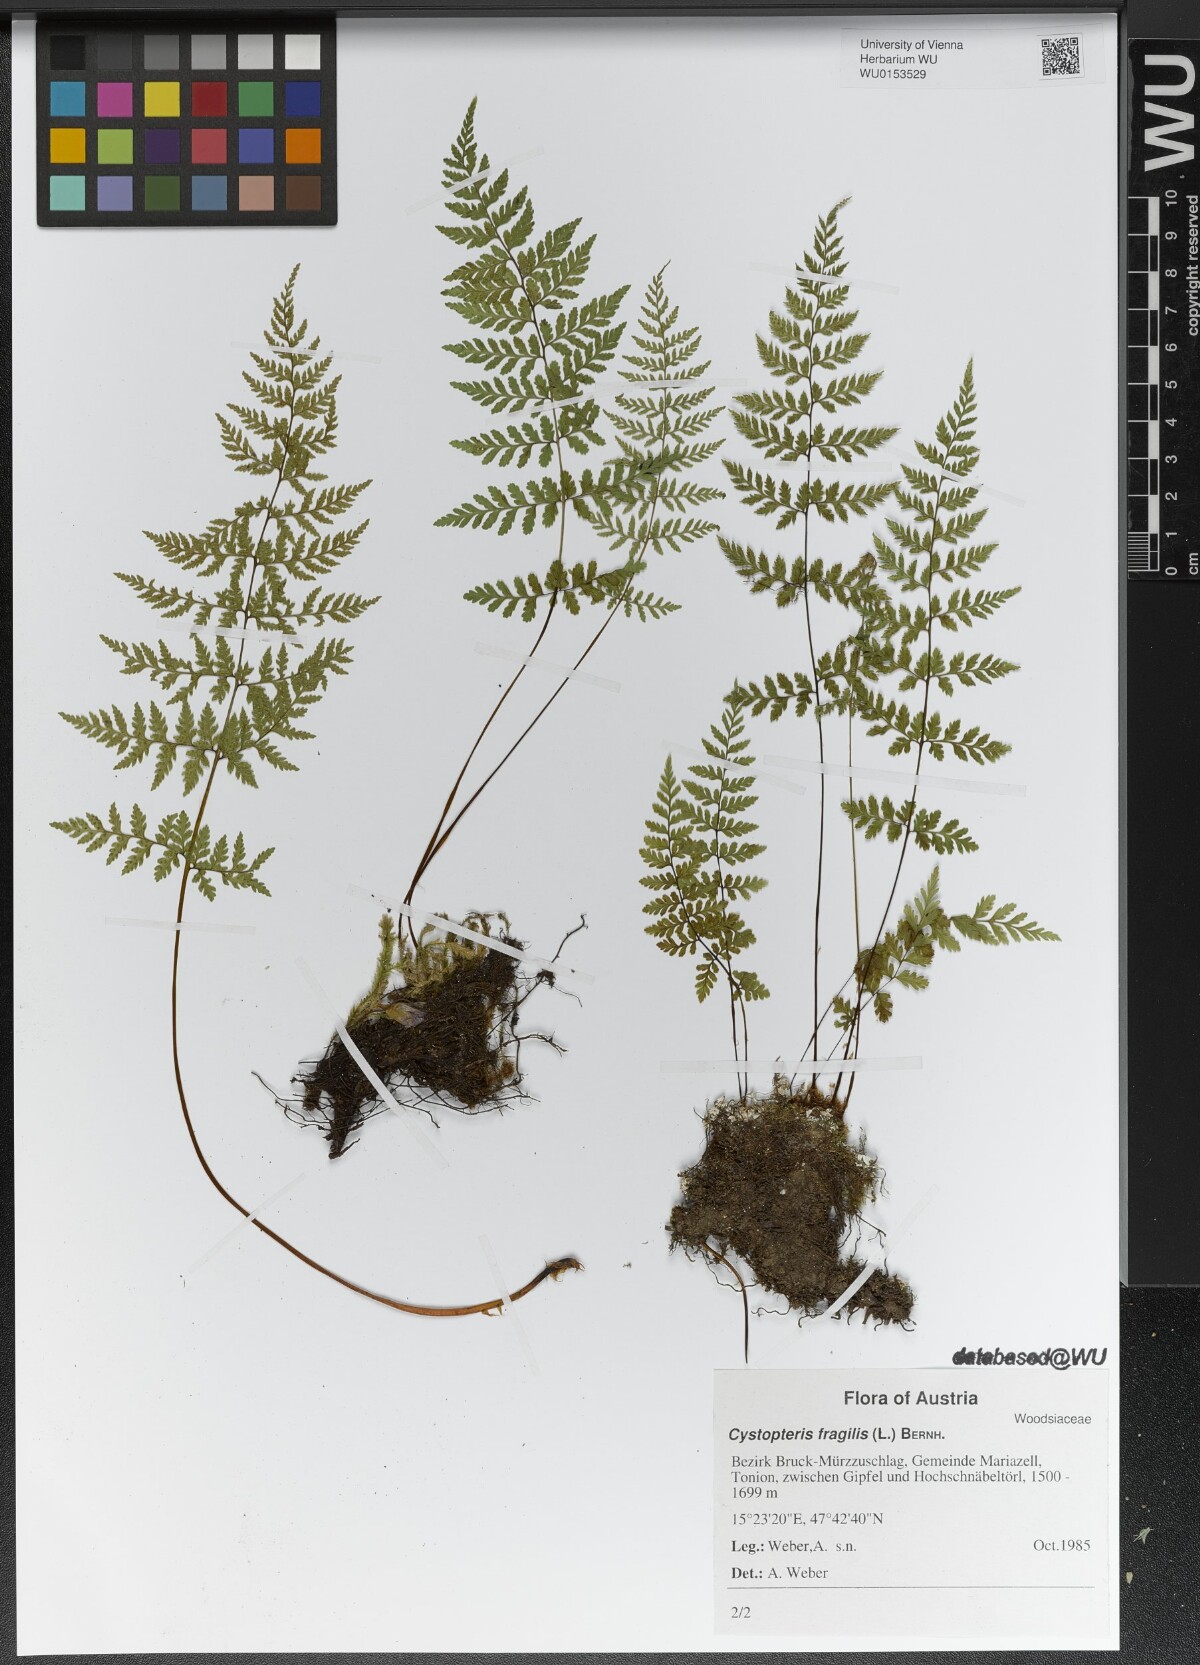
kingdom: Plantae
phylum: Tracheophyta
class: Polypodiopsida
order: Polypodiales
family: Cystopteridaceae
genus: Cystopteris
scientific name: Cystopteris fragilis
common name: Brittle bladder fern
